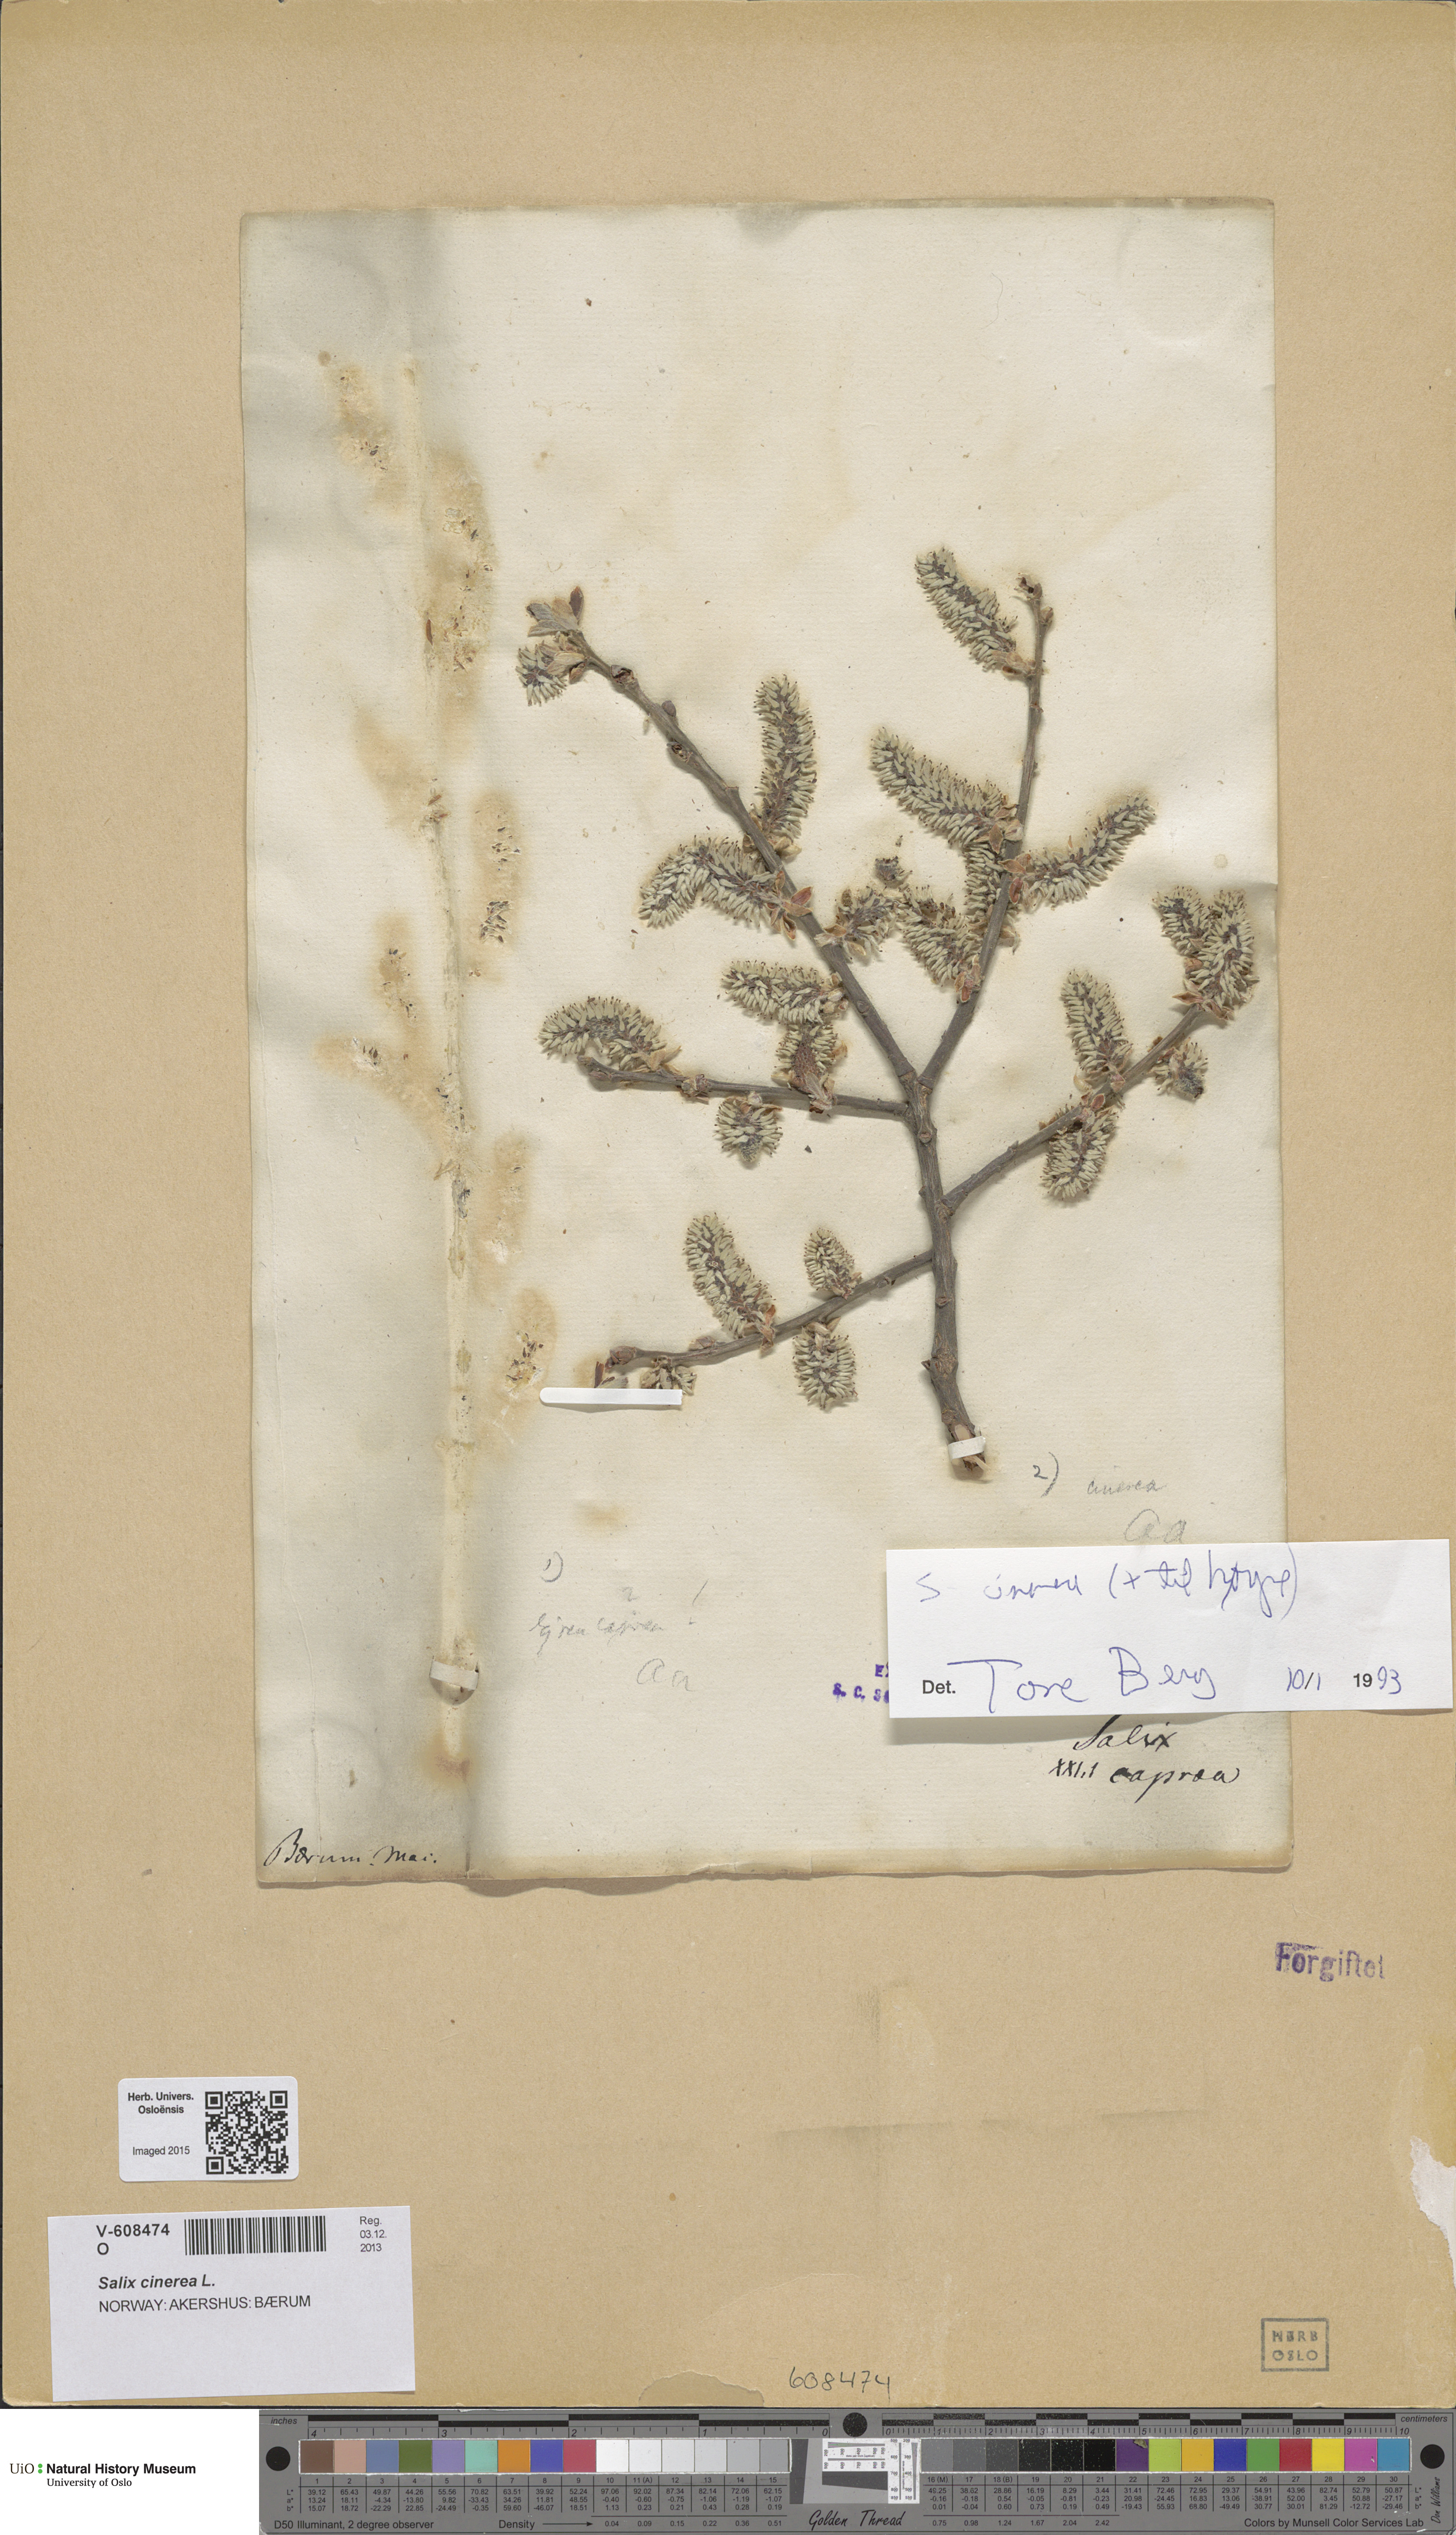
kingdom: Plantae
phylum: Tracheophyta
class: Magnoliopsida
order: Malpighiales
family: Salicaceae
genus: Salix
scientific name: Salix cinerea
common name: Common sallow
